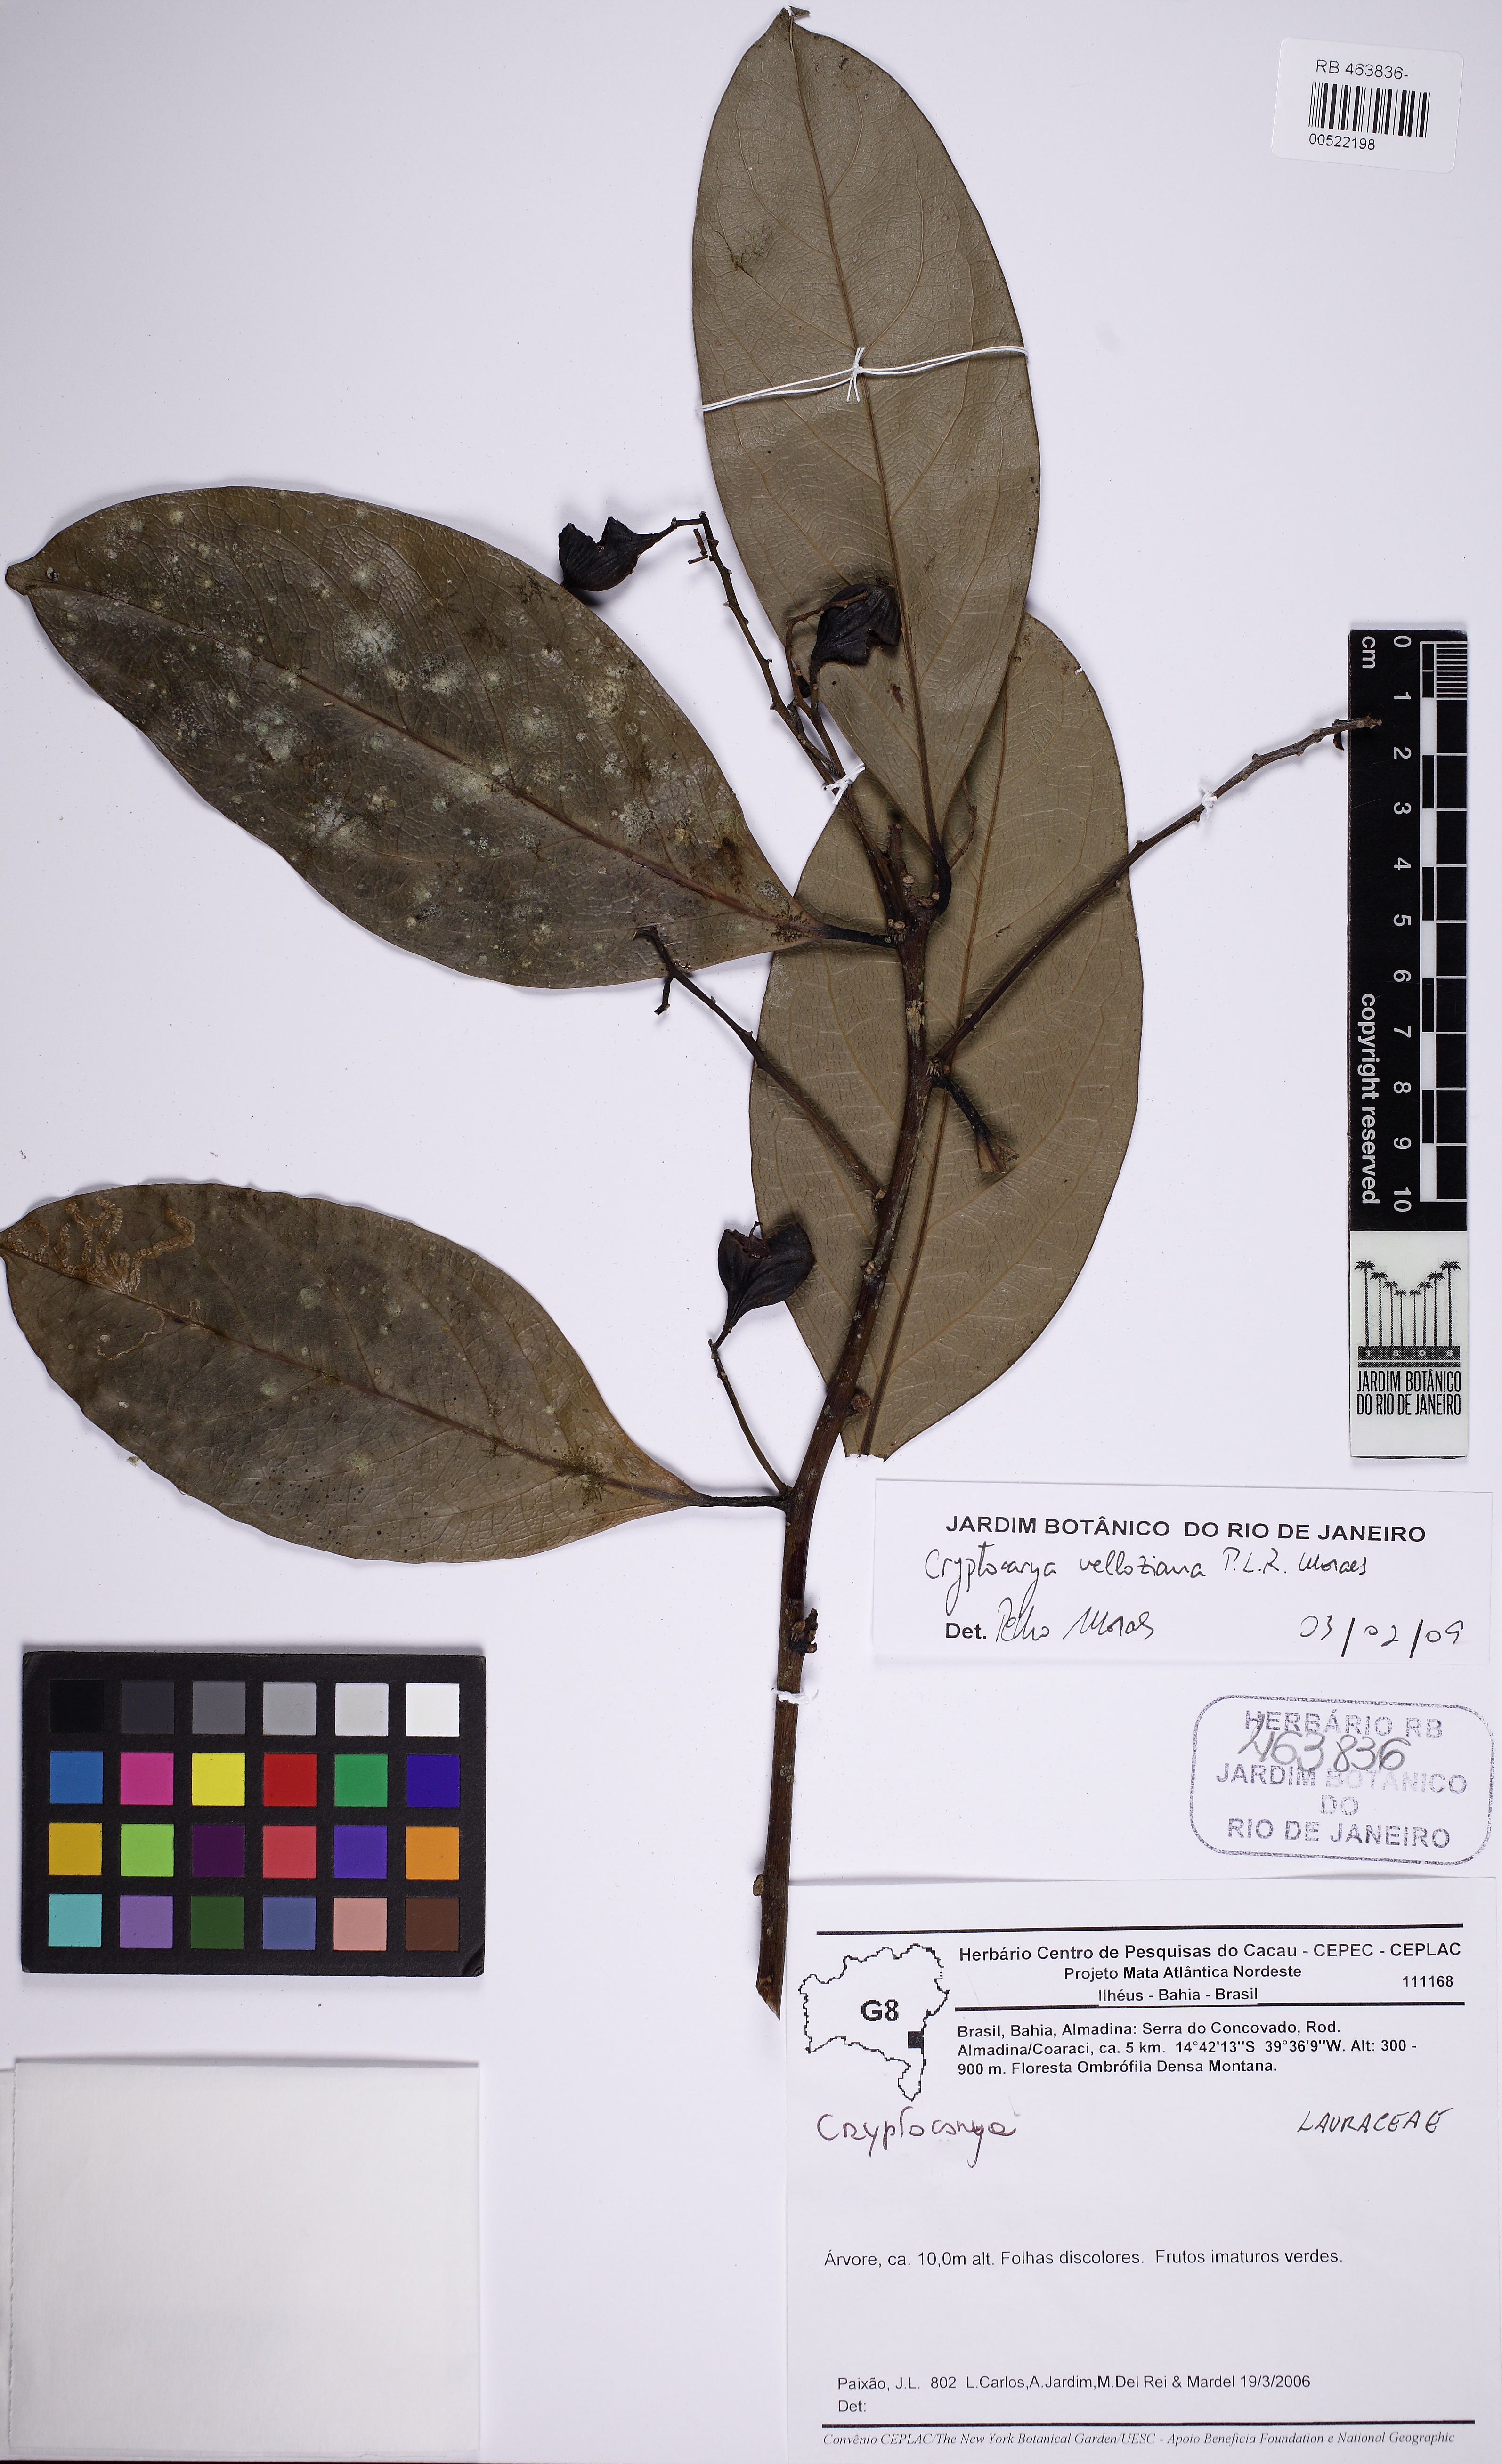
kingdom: Plantae
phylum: Tracheophyta
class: Magnoliopsida
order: Laurales
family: Lauraceae
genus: Cryptocarya
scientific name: Cryptocarya velloziana
